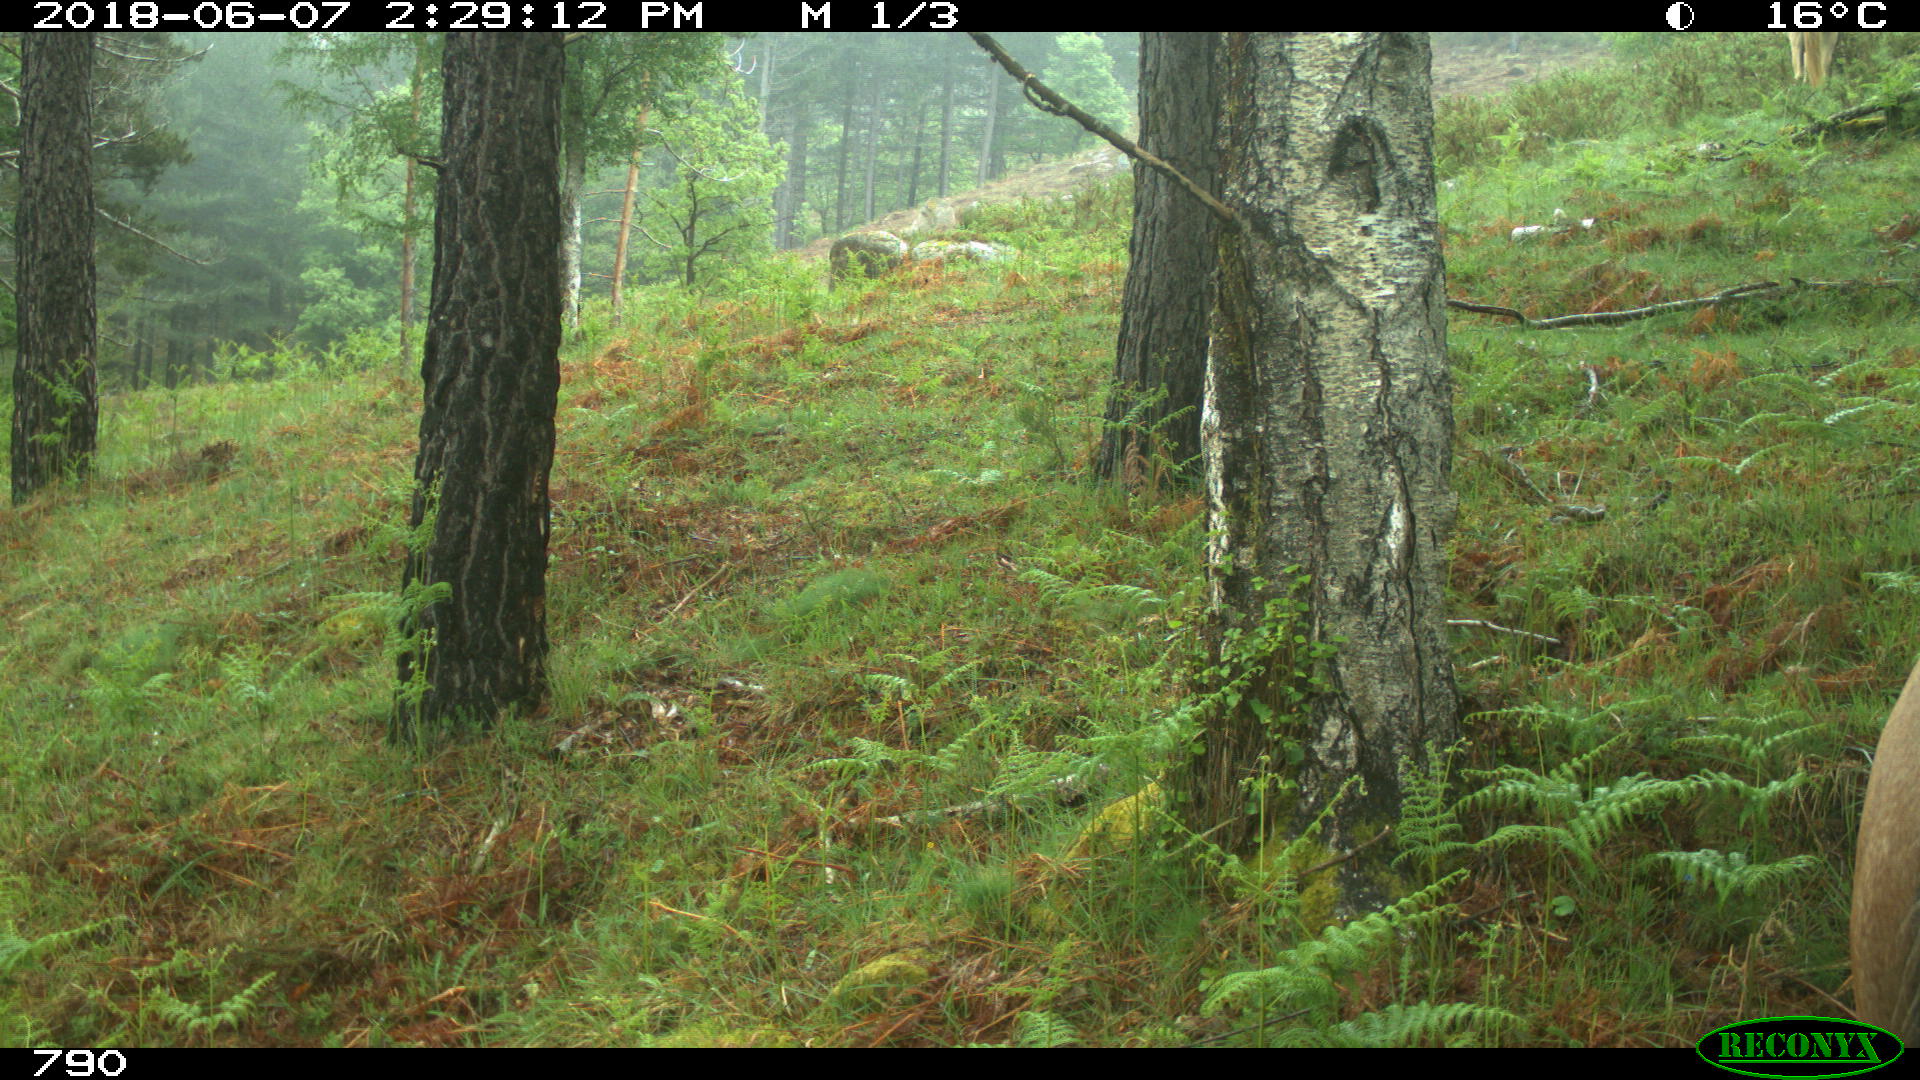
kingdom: Animalia
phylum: Chordata
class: Mammalia
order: Perissodactyla
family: Equidae
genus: Equus
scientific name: Equus caballus
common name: Horse
